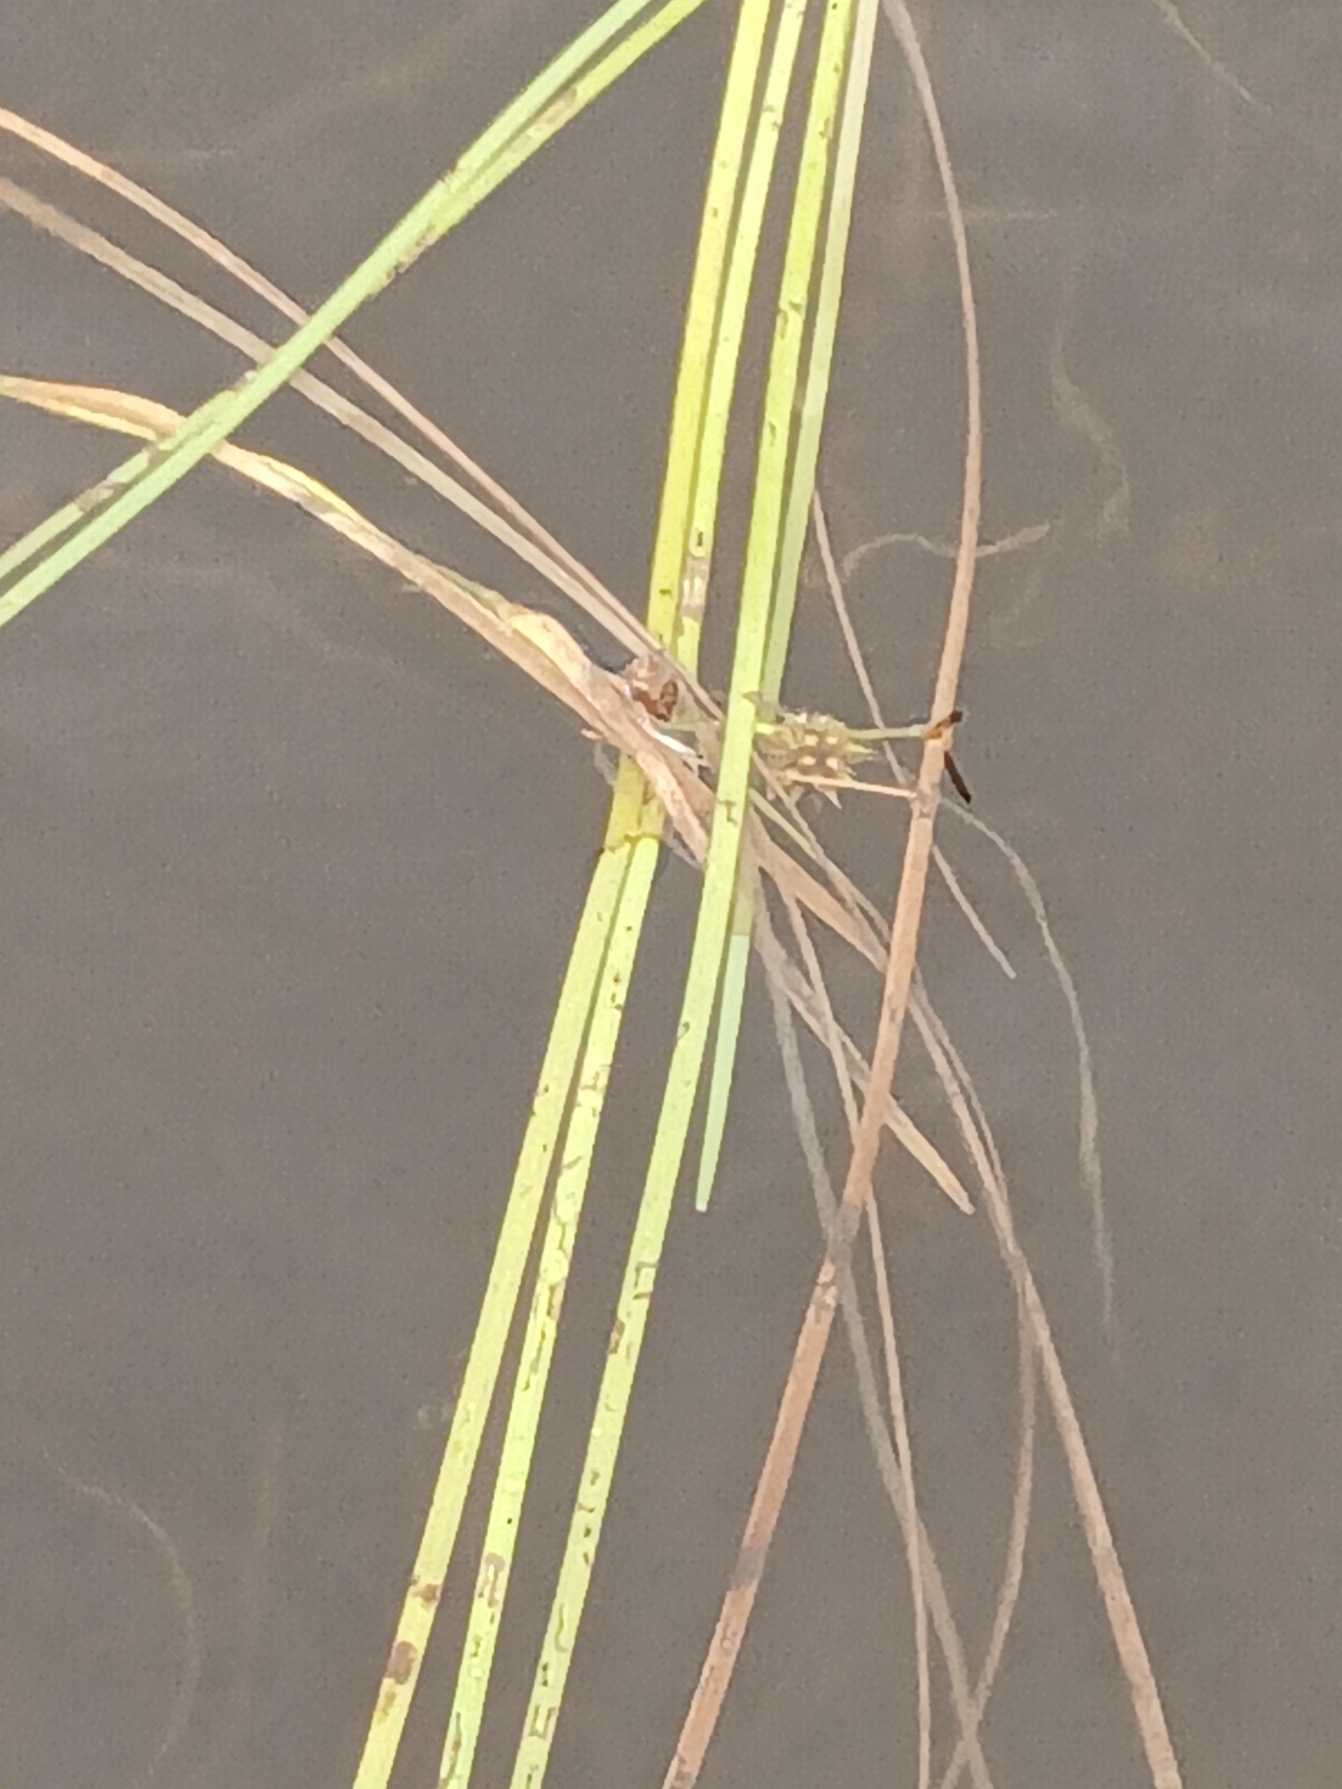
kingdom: Plantae
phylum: Tracheophyta
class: Liliopsida
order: Poales
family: Typhaceae
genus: Sparganium
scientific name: Sparganium angustifolium
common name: Smalbladet pindsvineknop
